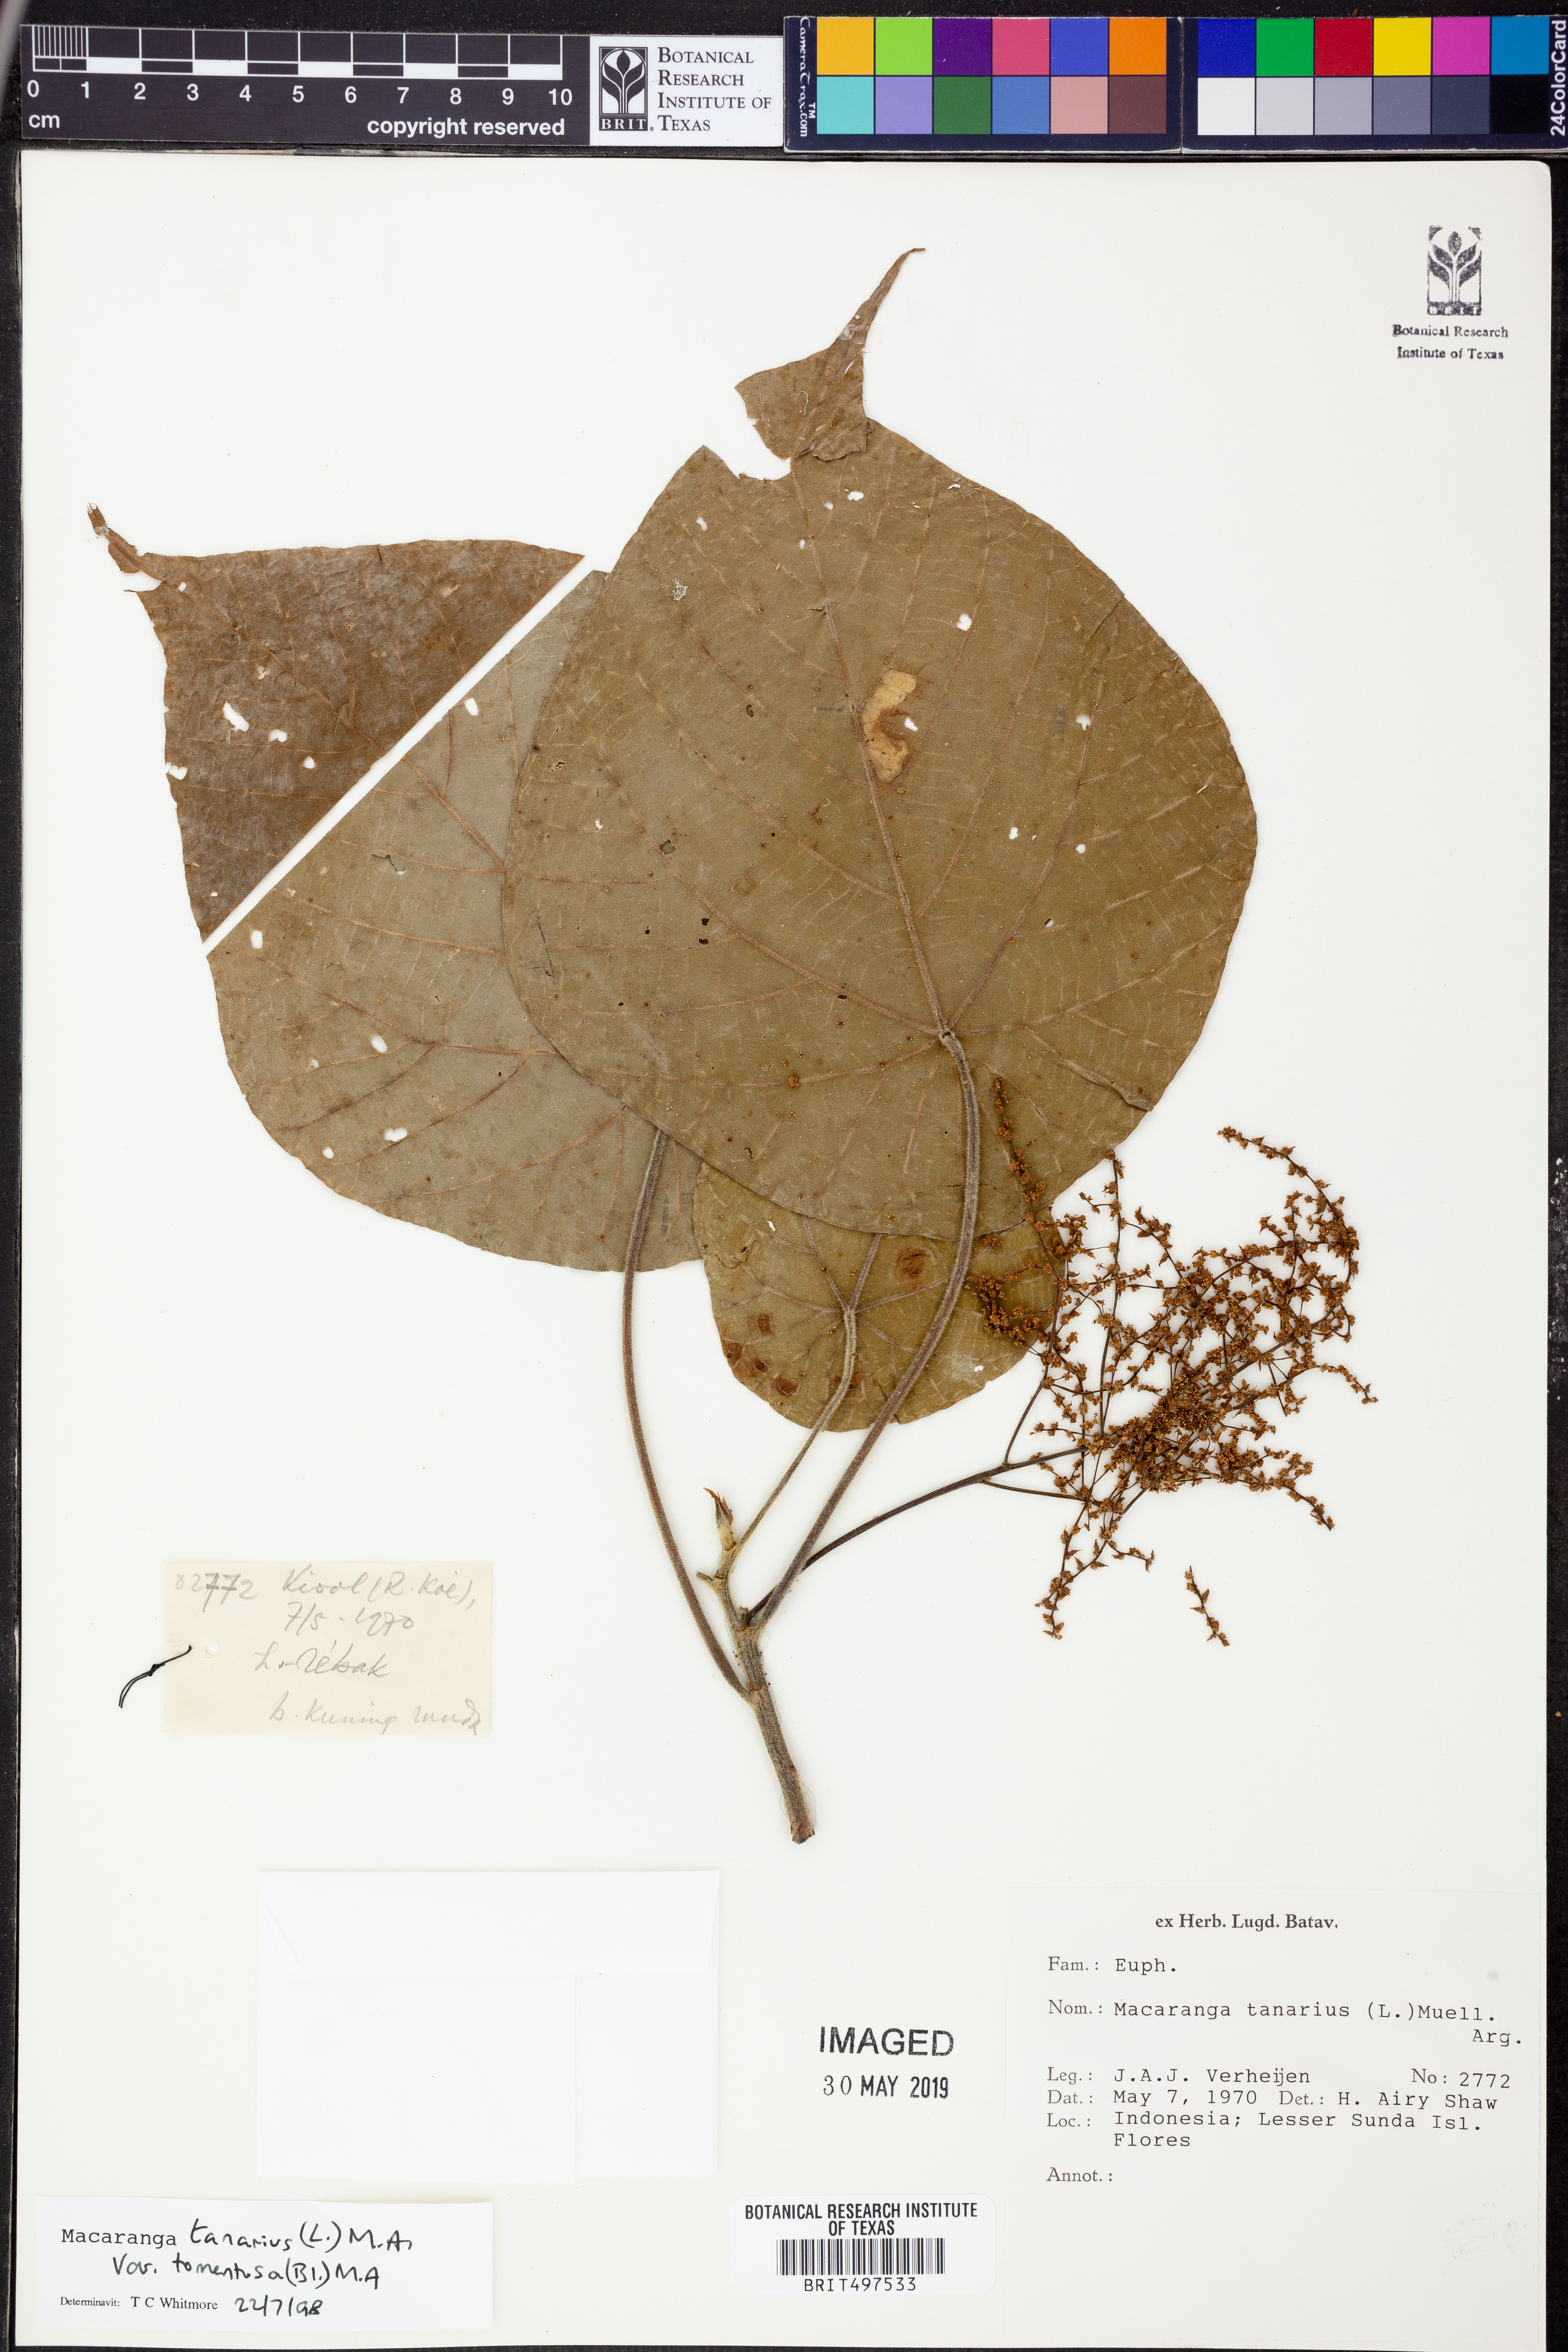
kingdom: Plantae
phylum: Tracheophyta
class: Magnoliopsida
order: Malpighiales
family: Euphorbiaceae
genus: Macaranga
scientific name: Macaranga tanarius
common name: Parasol leaf tree
